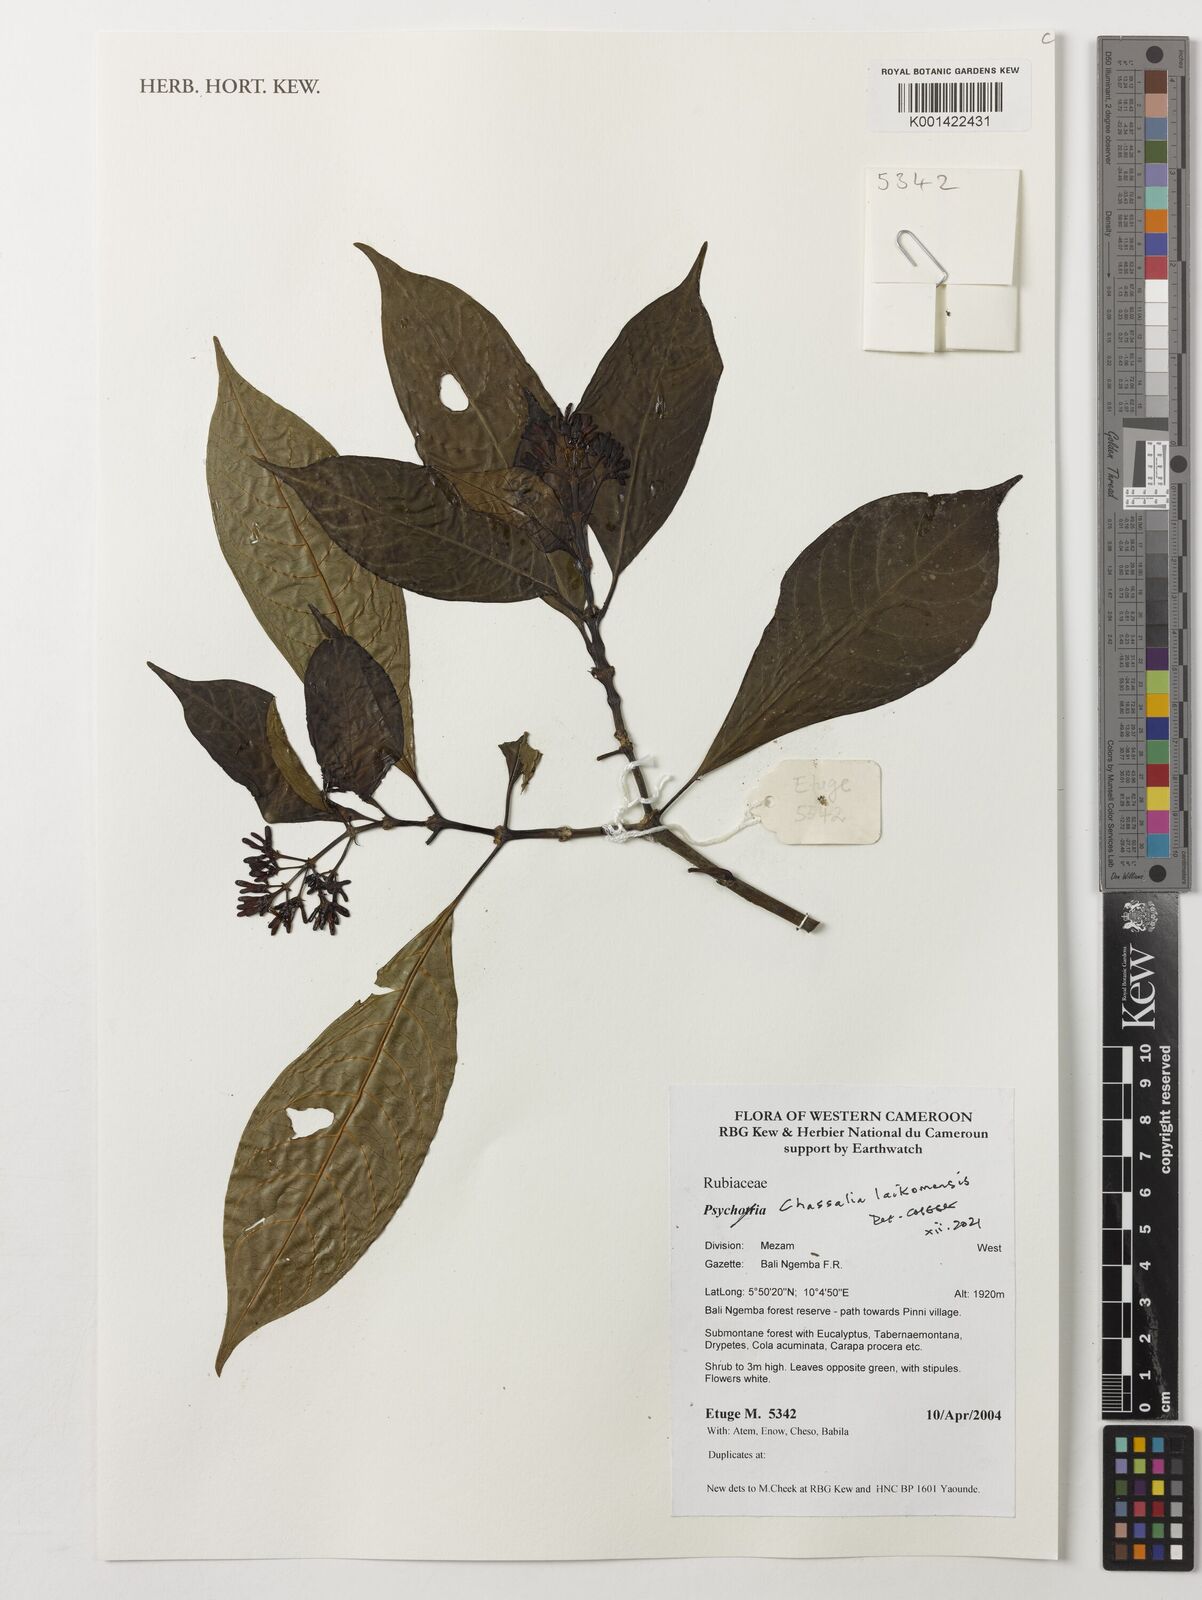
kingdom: Plantae
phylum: Tracheophyta
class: Magnoliopsida
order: Gentianales
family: Rubiaceae
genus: Chassalia
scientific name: Chassalia laikomensis
